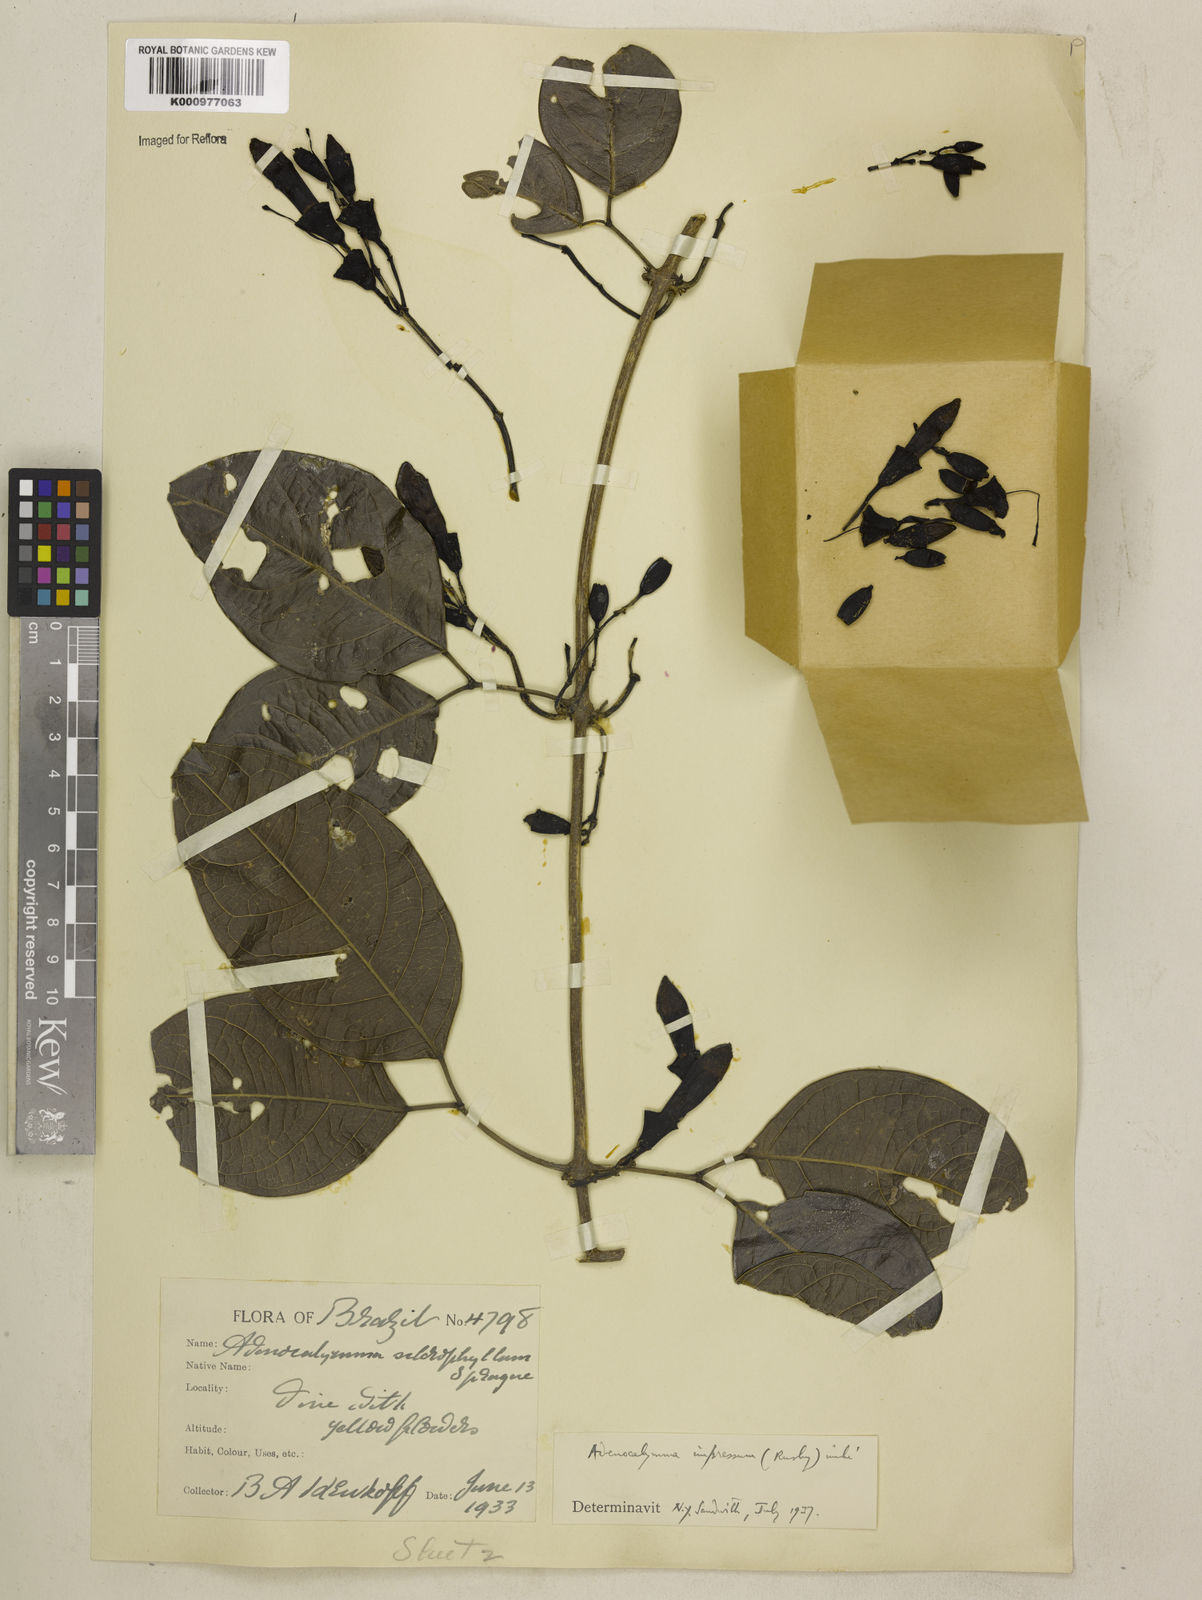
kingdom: Plantae
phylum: Tracheophyta
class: Magnoliopsida
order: Lamiales
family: Bignoniaceae
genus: Adenocalymma
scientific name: Adenocalymma impressum
